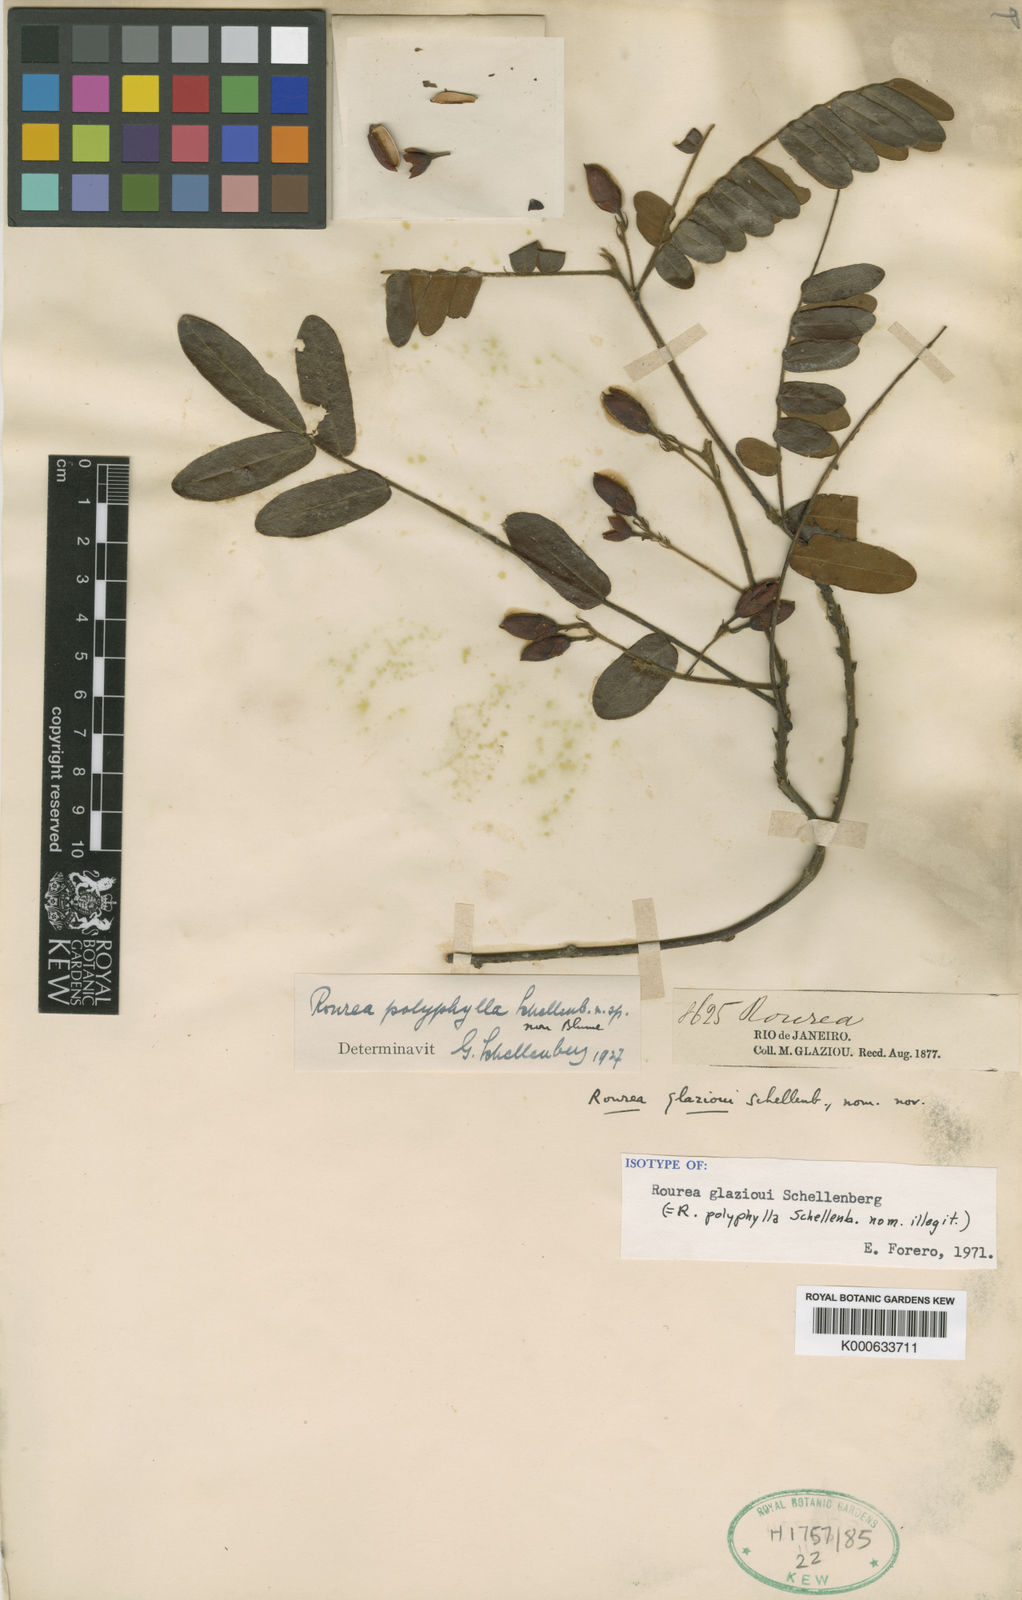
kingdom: Plantae
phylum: Tracheophyta
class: Magnoliopsida
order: Oxalidales
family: Connaraceae
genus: Rourea
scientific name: Rourea glazioui
